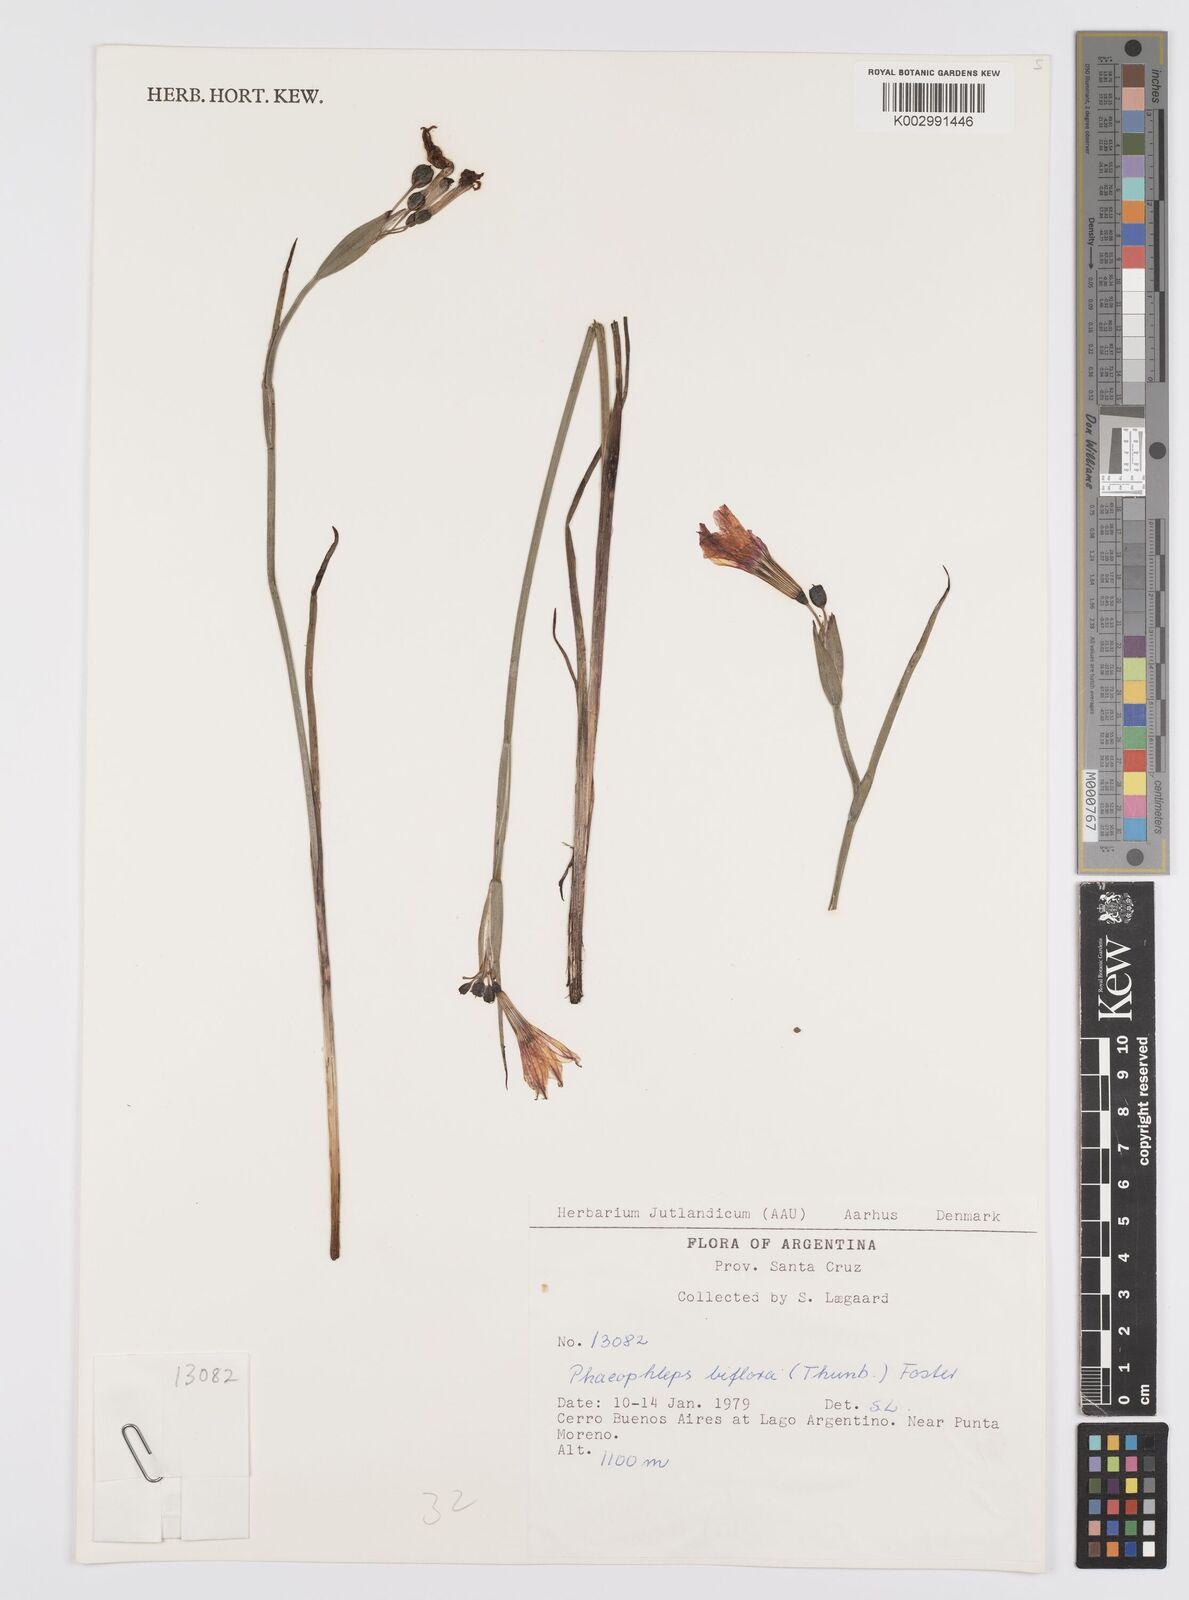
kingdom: Plantae
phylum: Tracheophyta
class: Liliopsida
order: Asparagales
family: Iridaceae
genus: Olsynium
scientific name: Olsynium biflorum
